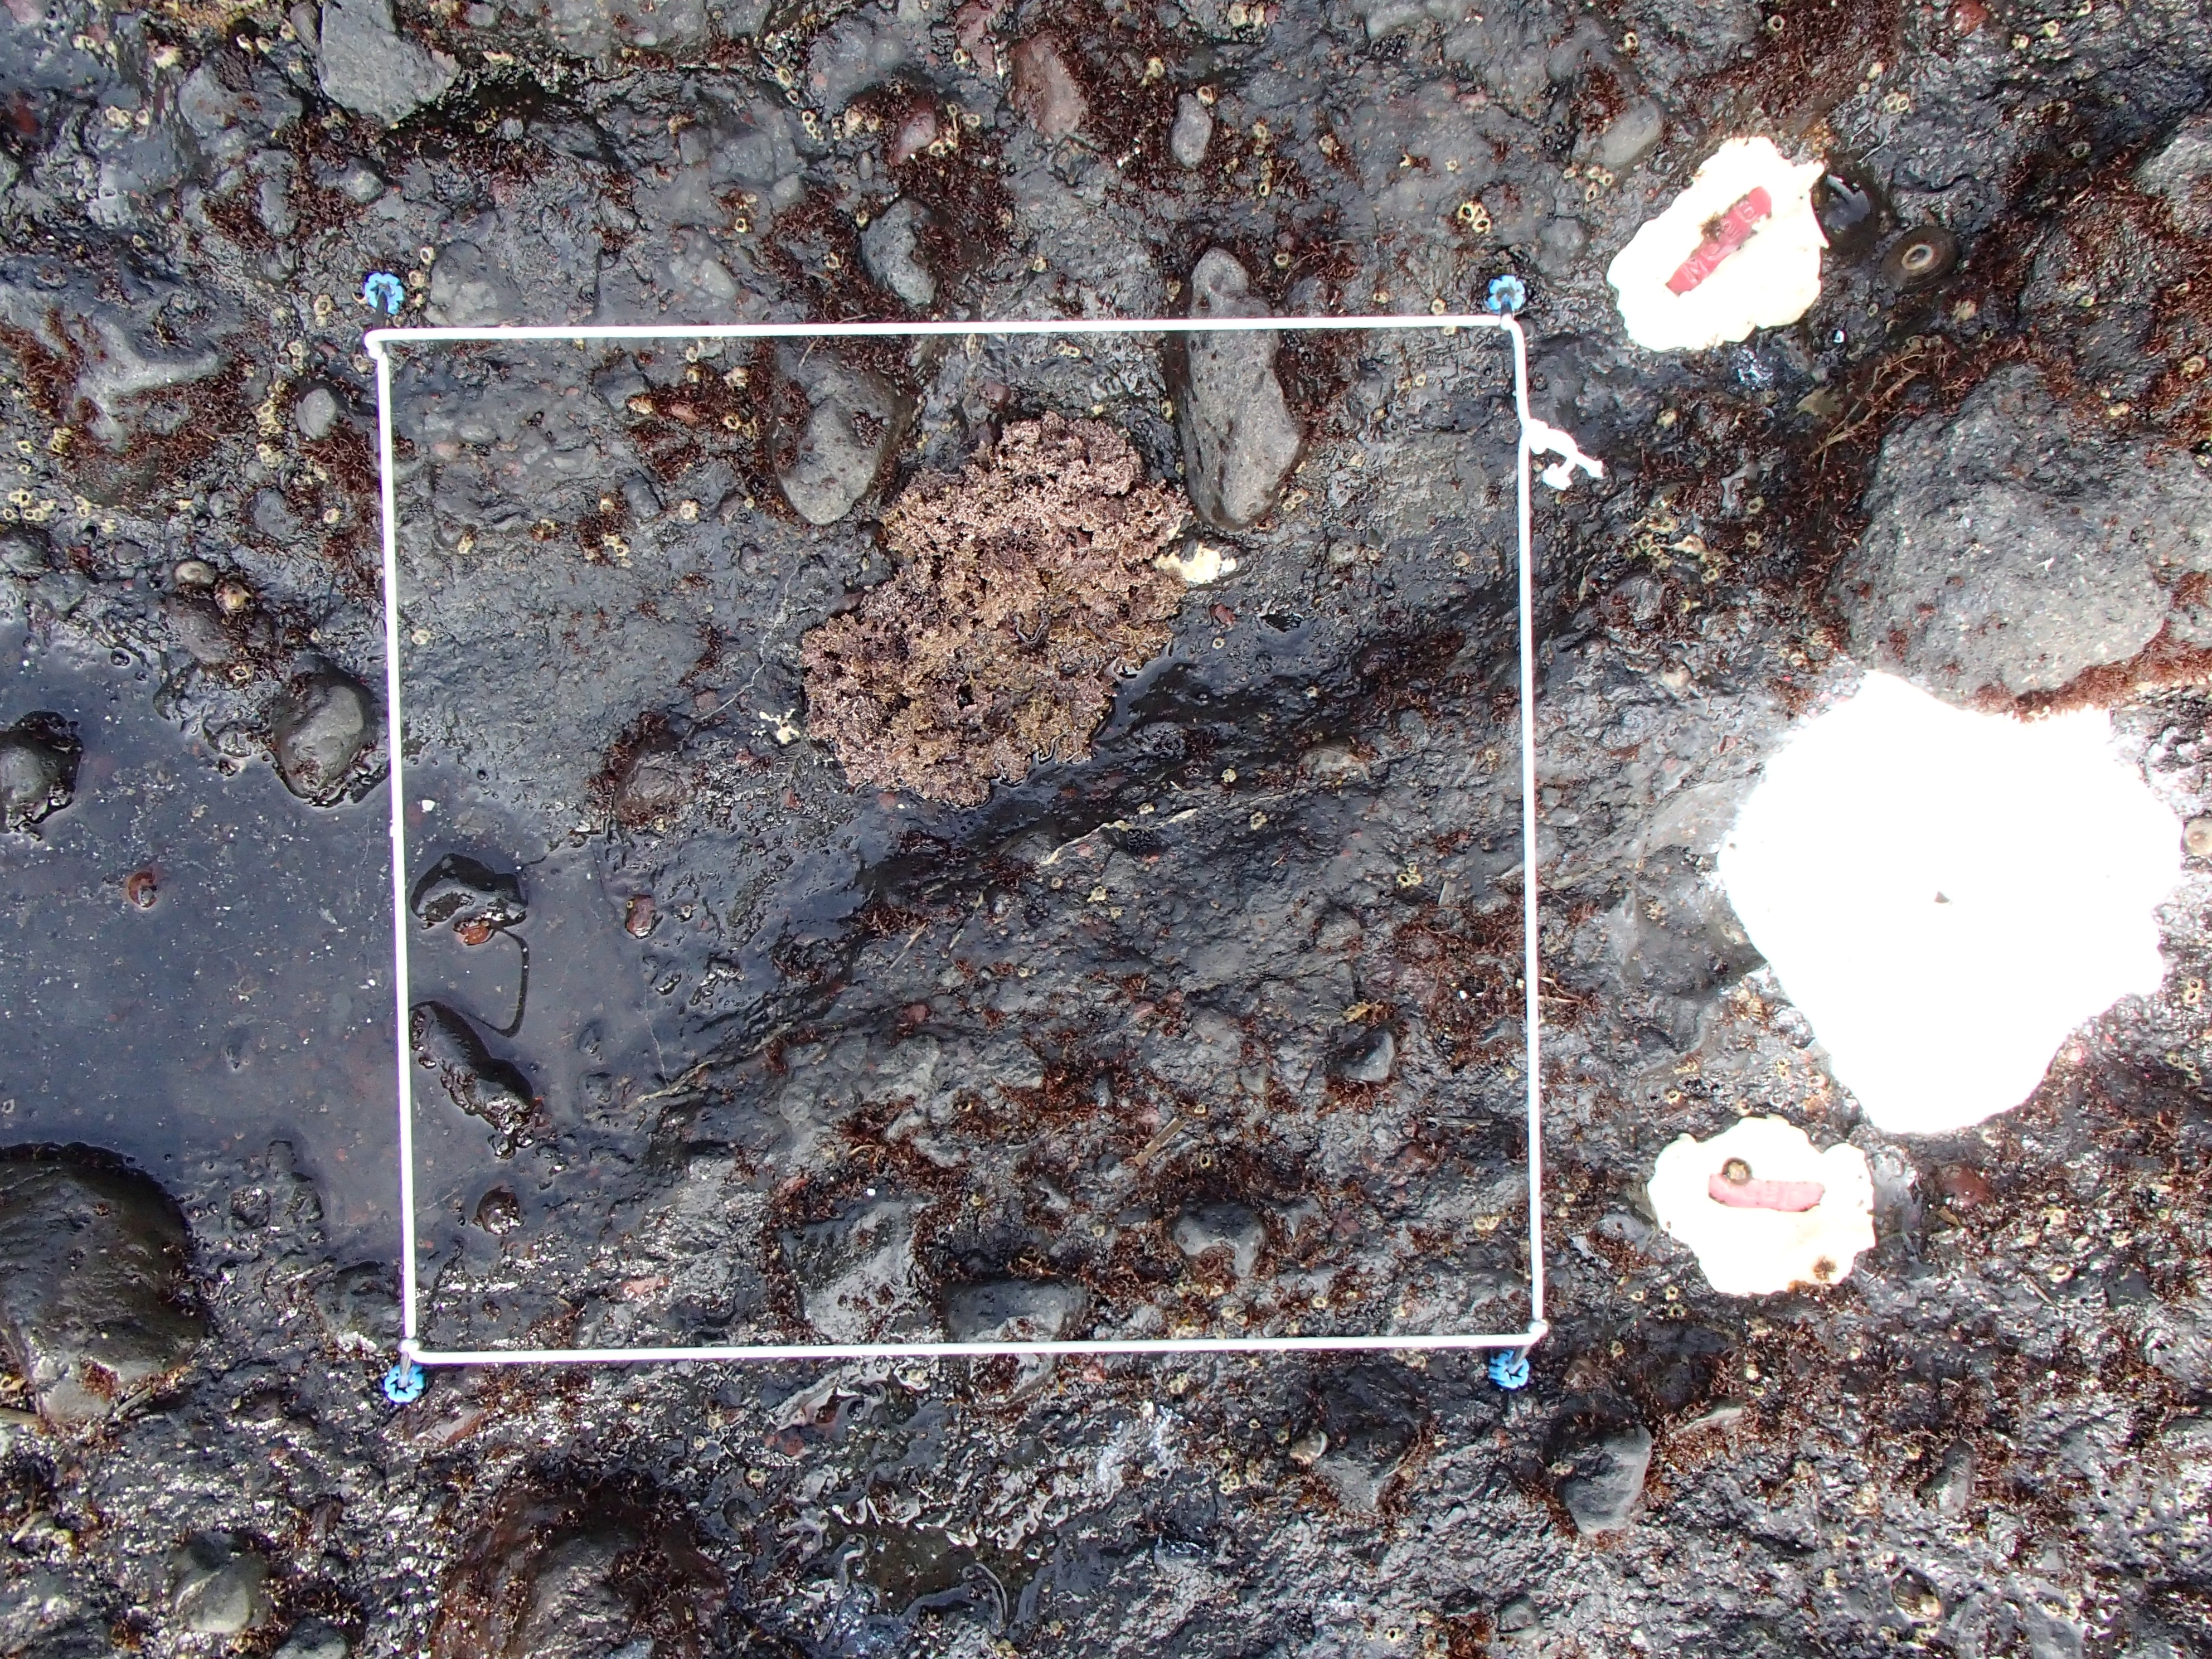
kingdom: Animalia
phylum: Arthropoda
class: Maxillopoda
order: Sessilia
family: Chthamalidae
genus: Chthamalus
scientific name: Chthamalus dalli
